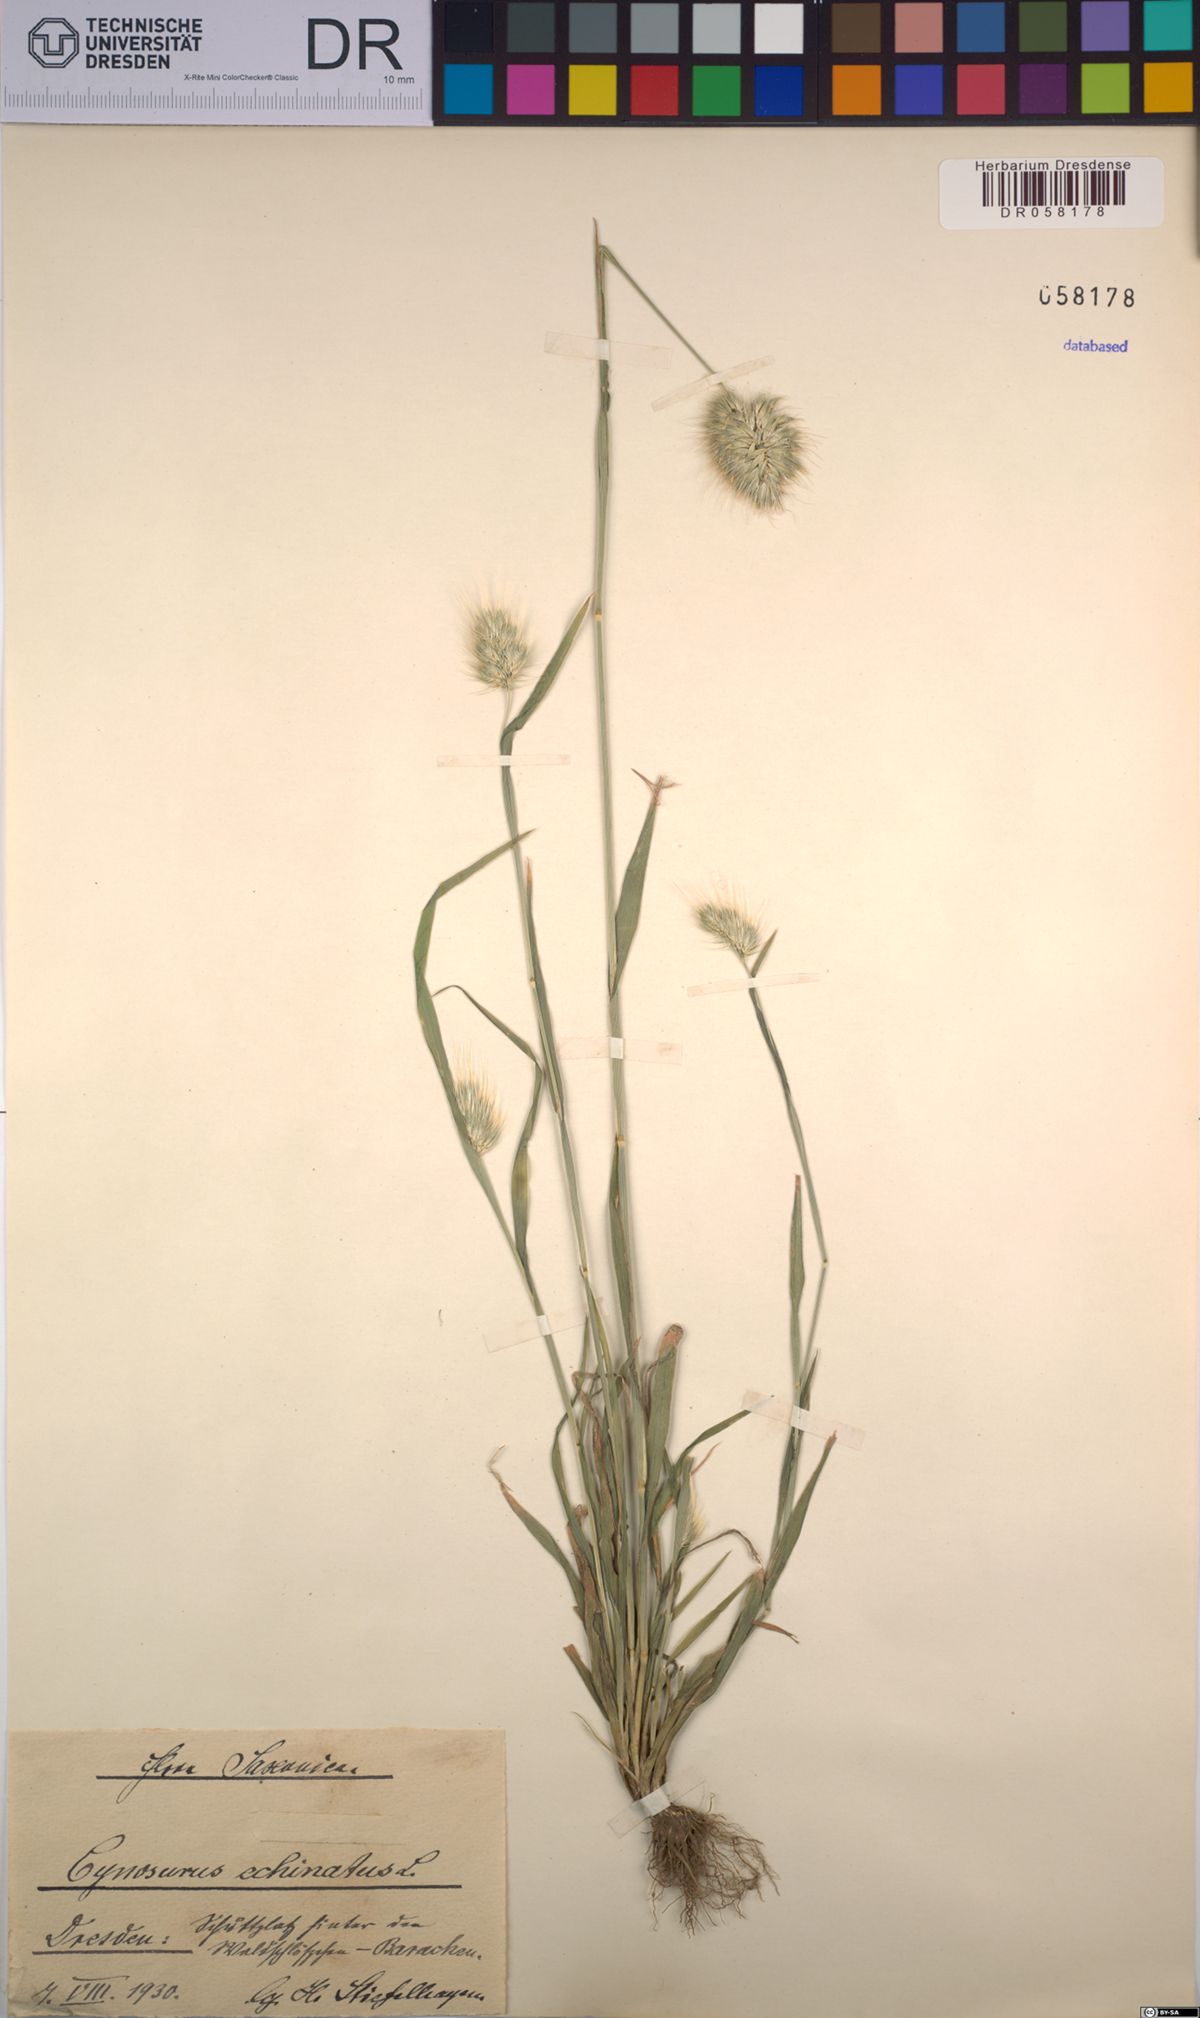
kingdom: Plantae
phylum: Tracheophyta
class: Liliopsida
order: Poales
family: Poaceae
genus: Cynosurus
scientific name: Cynosurus echinatus
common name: Rough dog's-tail
